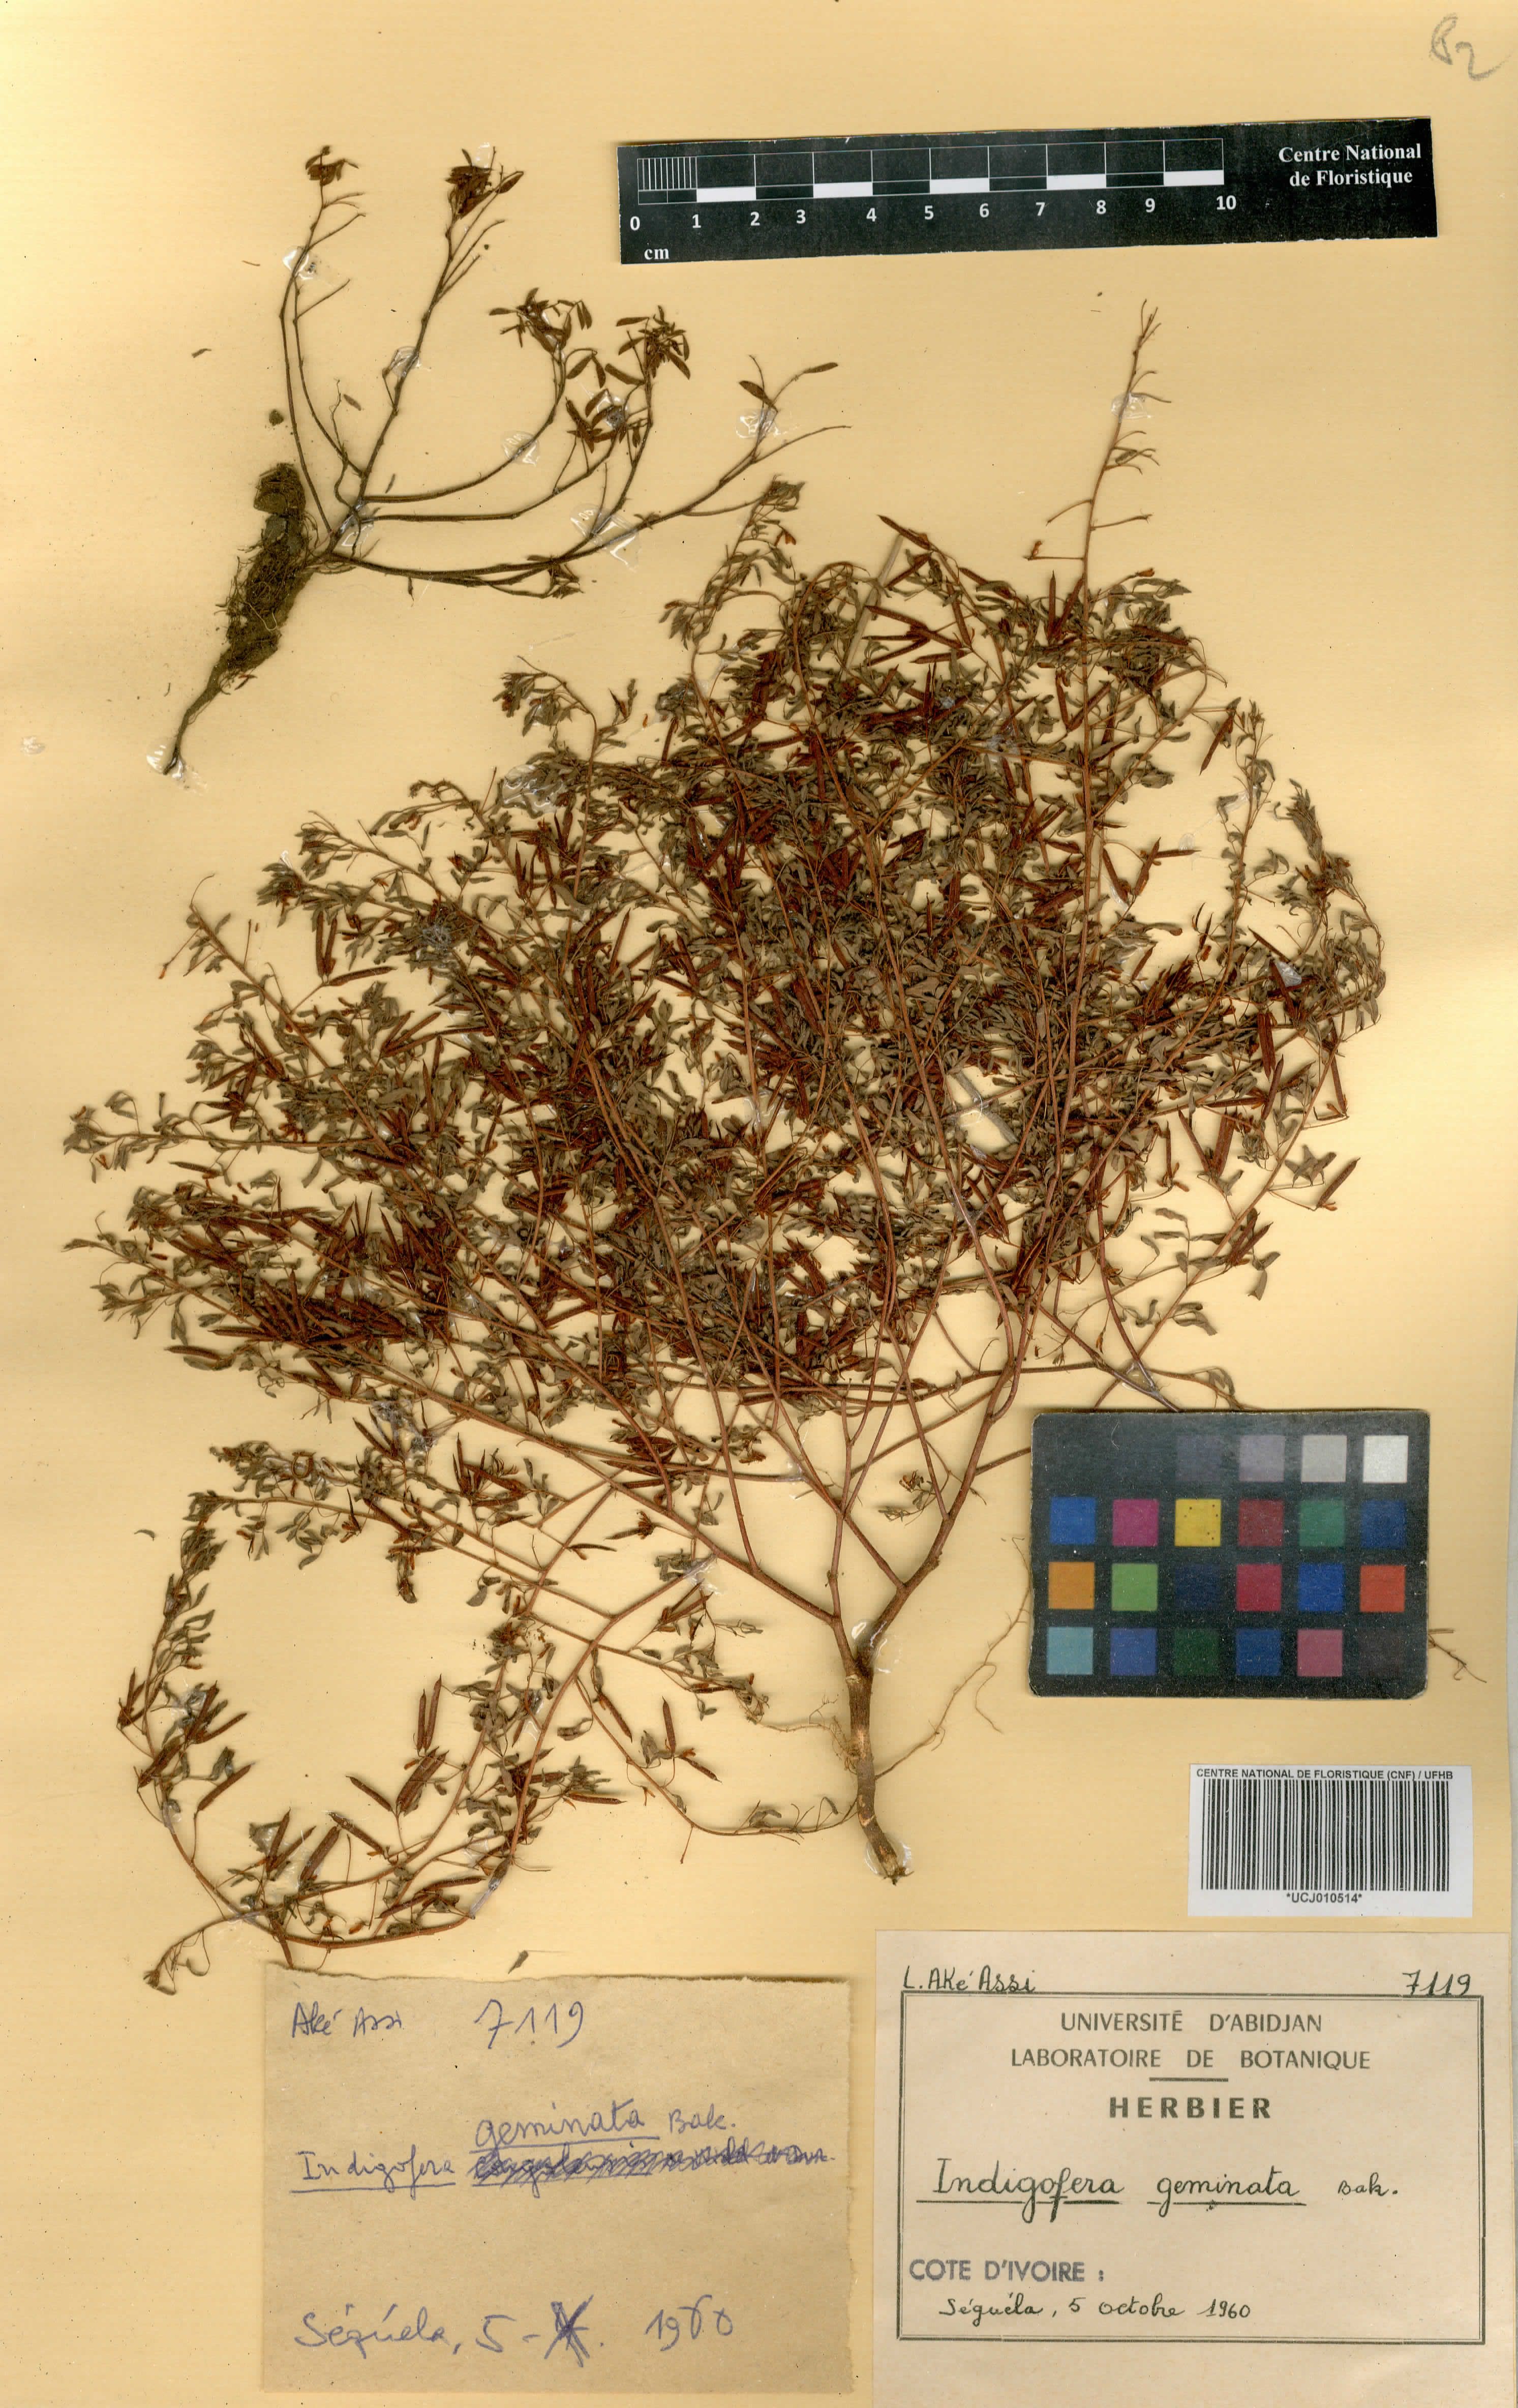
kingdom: Plantae
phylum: Tracheophyta
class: Magnoliopsida
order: Fabales
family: Fabaceae
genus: Indigofera
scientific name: Indigofera geminata
